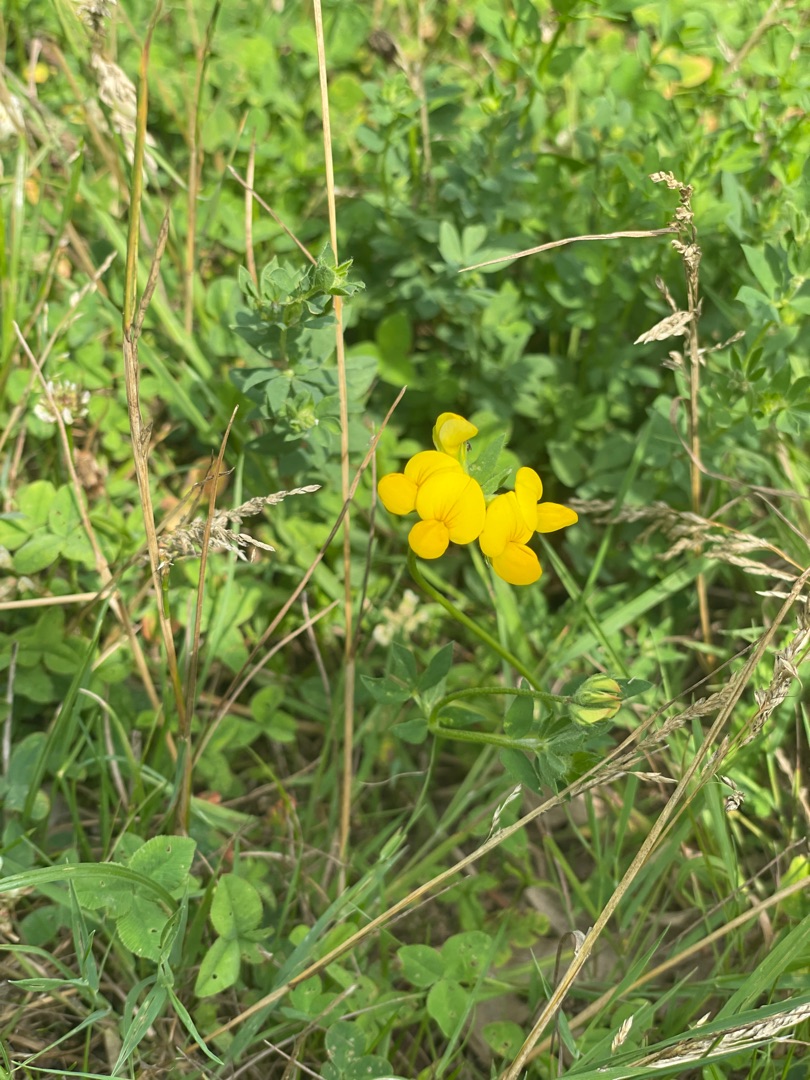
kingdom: Plantae
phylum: Tracheophyta
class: Magnoliopsida
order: Fabales
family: Fabaceae
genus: Lotus
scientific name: Lotus corniculatus
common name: Almindelig kællingetand
